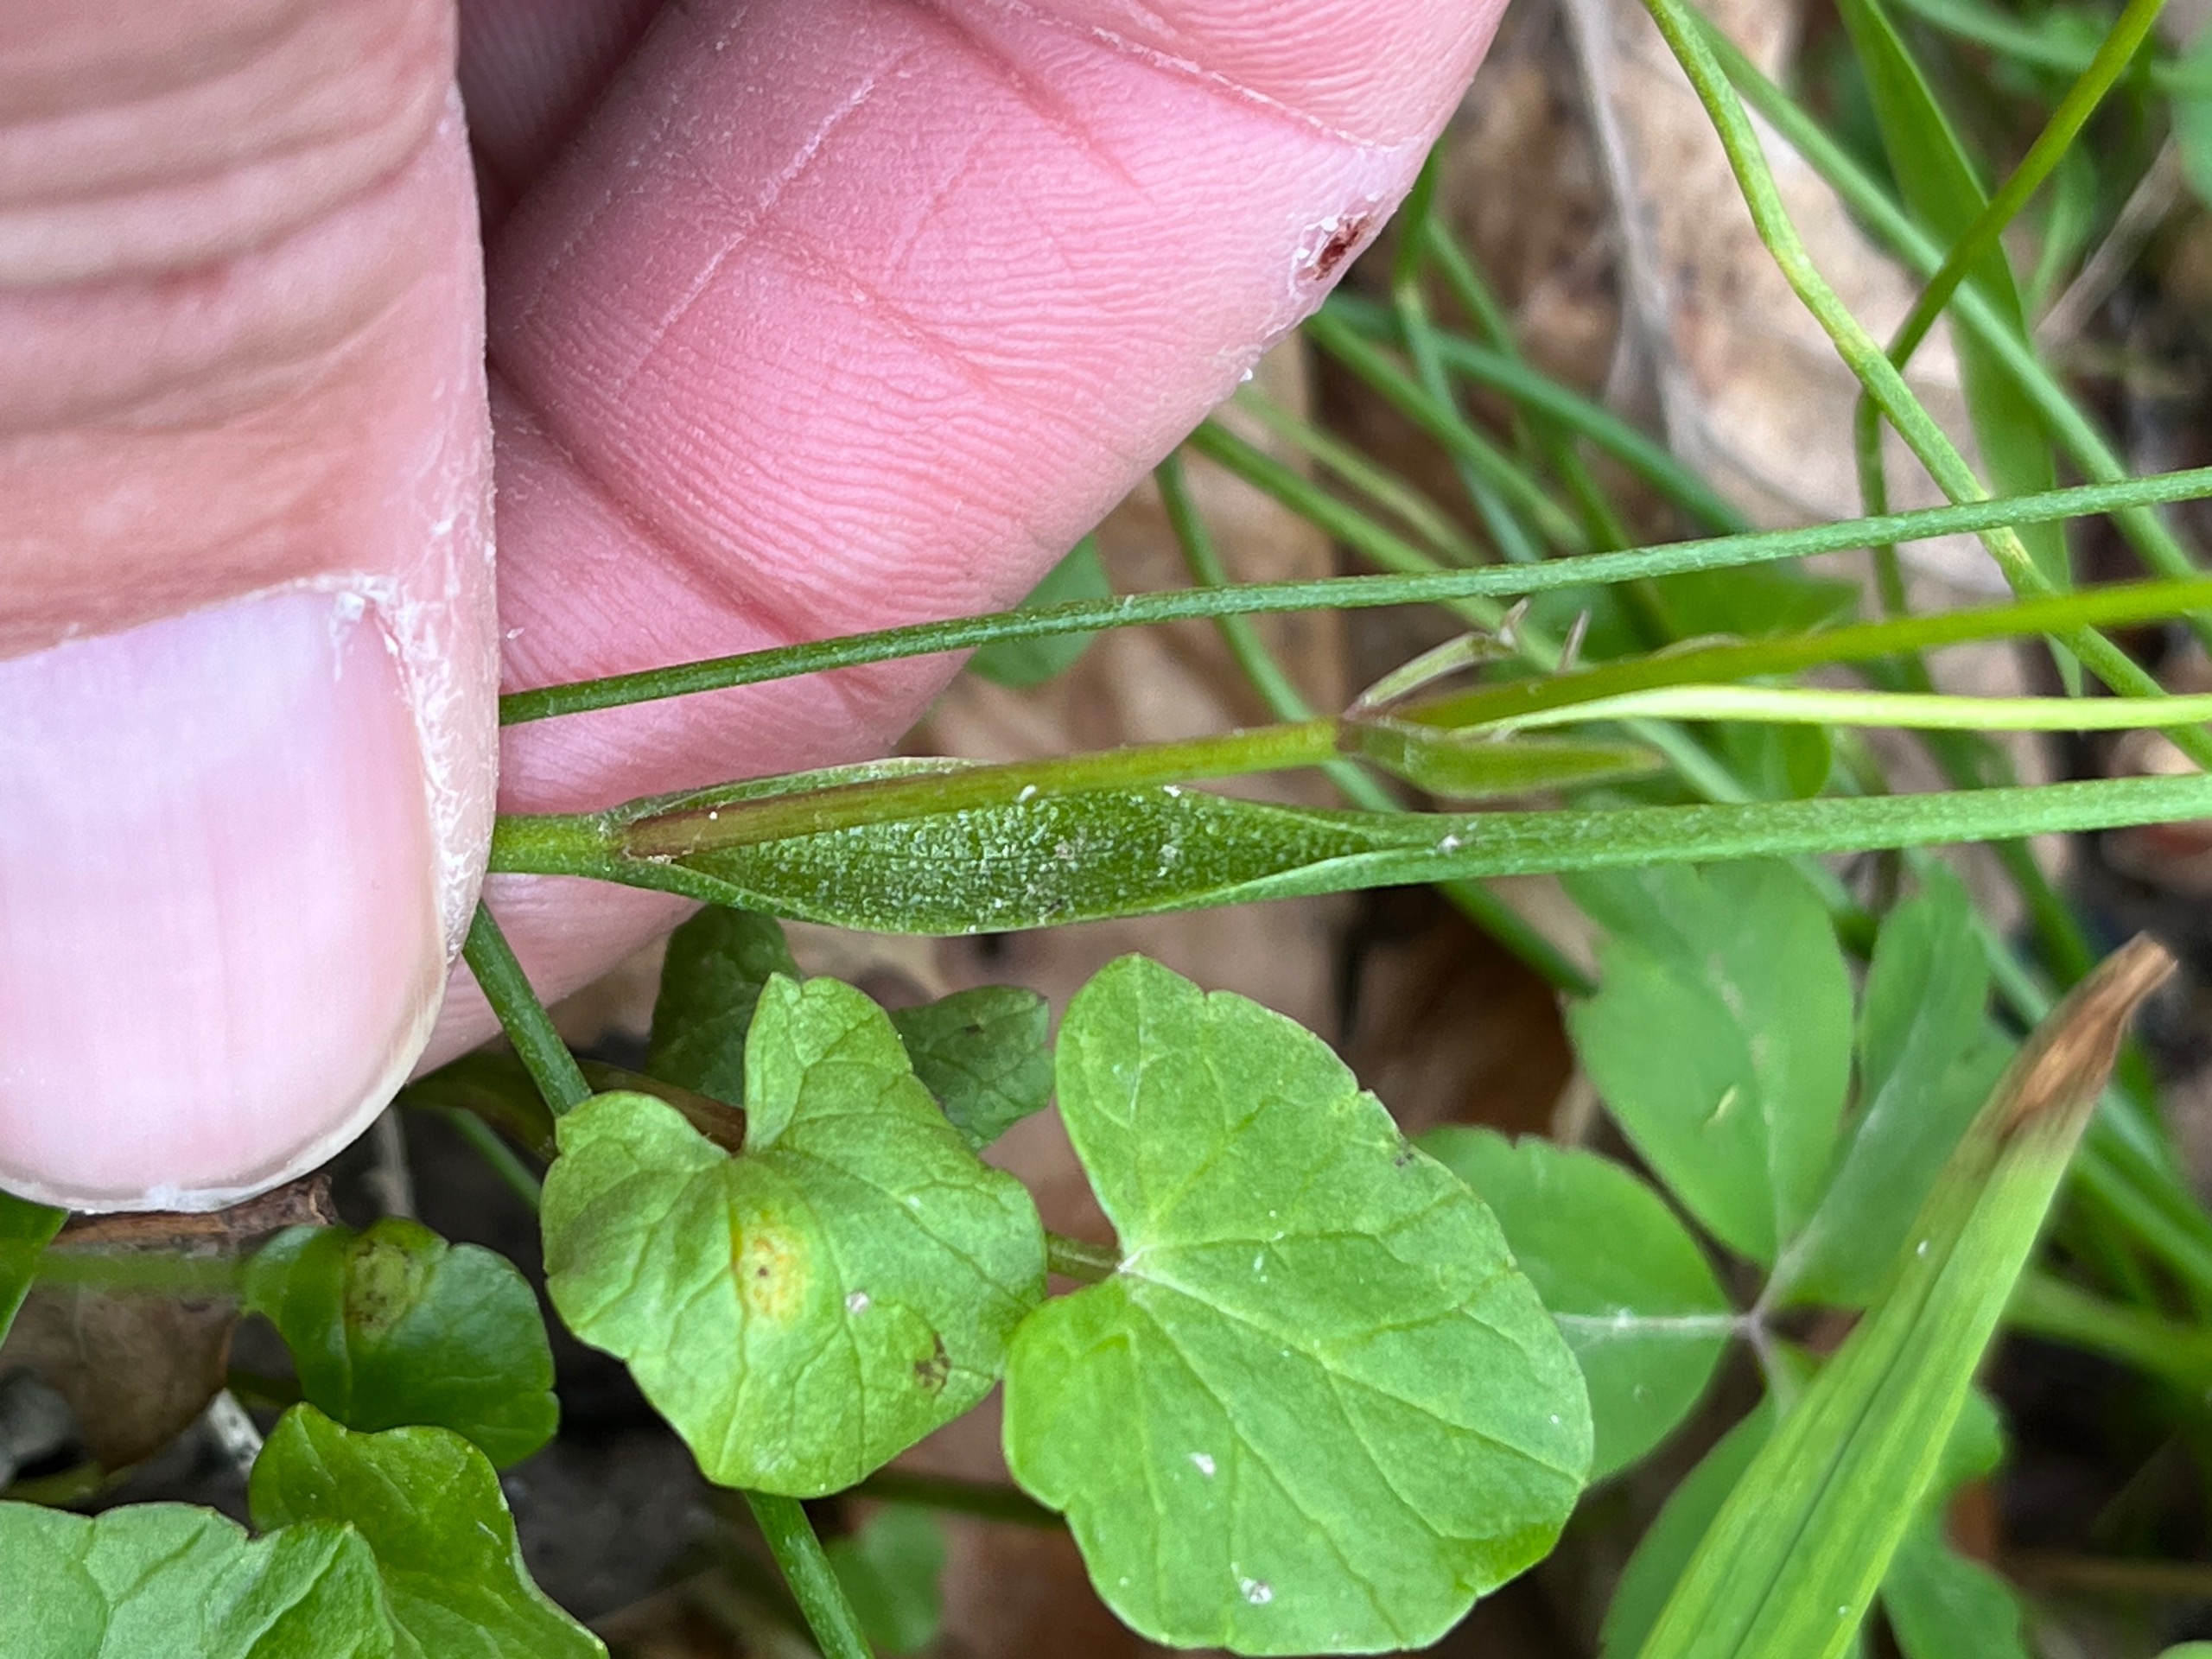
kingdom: Plantae
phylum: Tracheophyta
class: Liliopsida
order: Liliales
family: Liliaceae
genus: Gagea
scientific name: Gagea spathacea
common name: Hylster-guldstjerne
